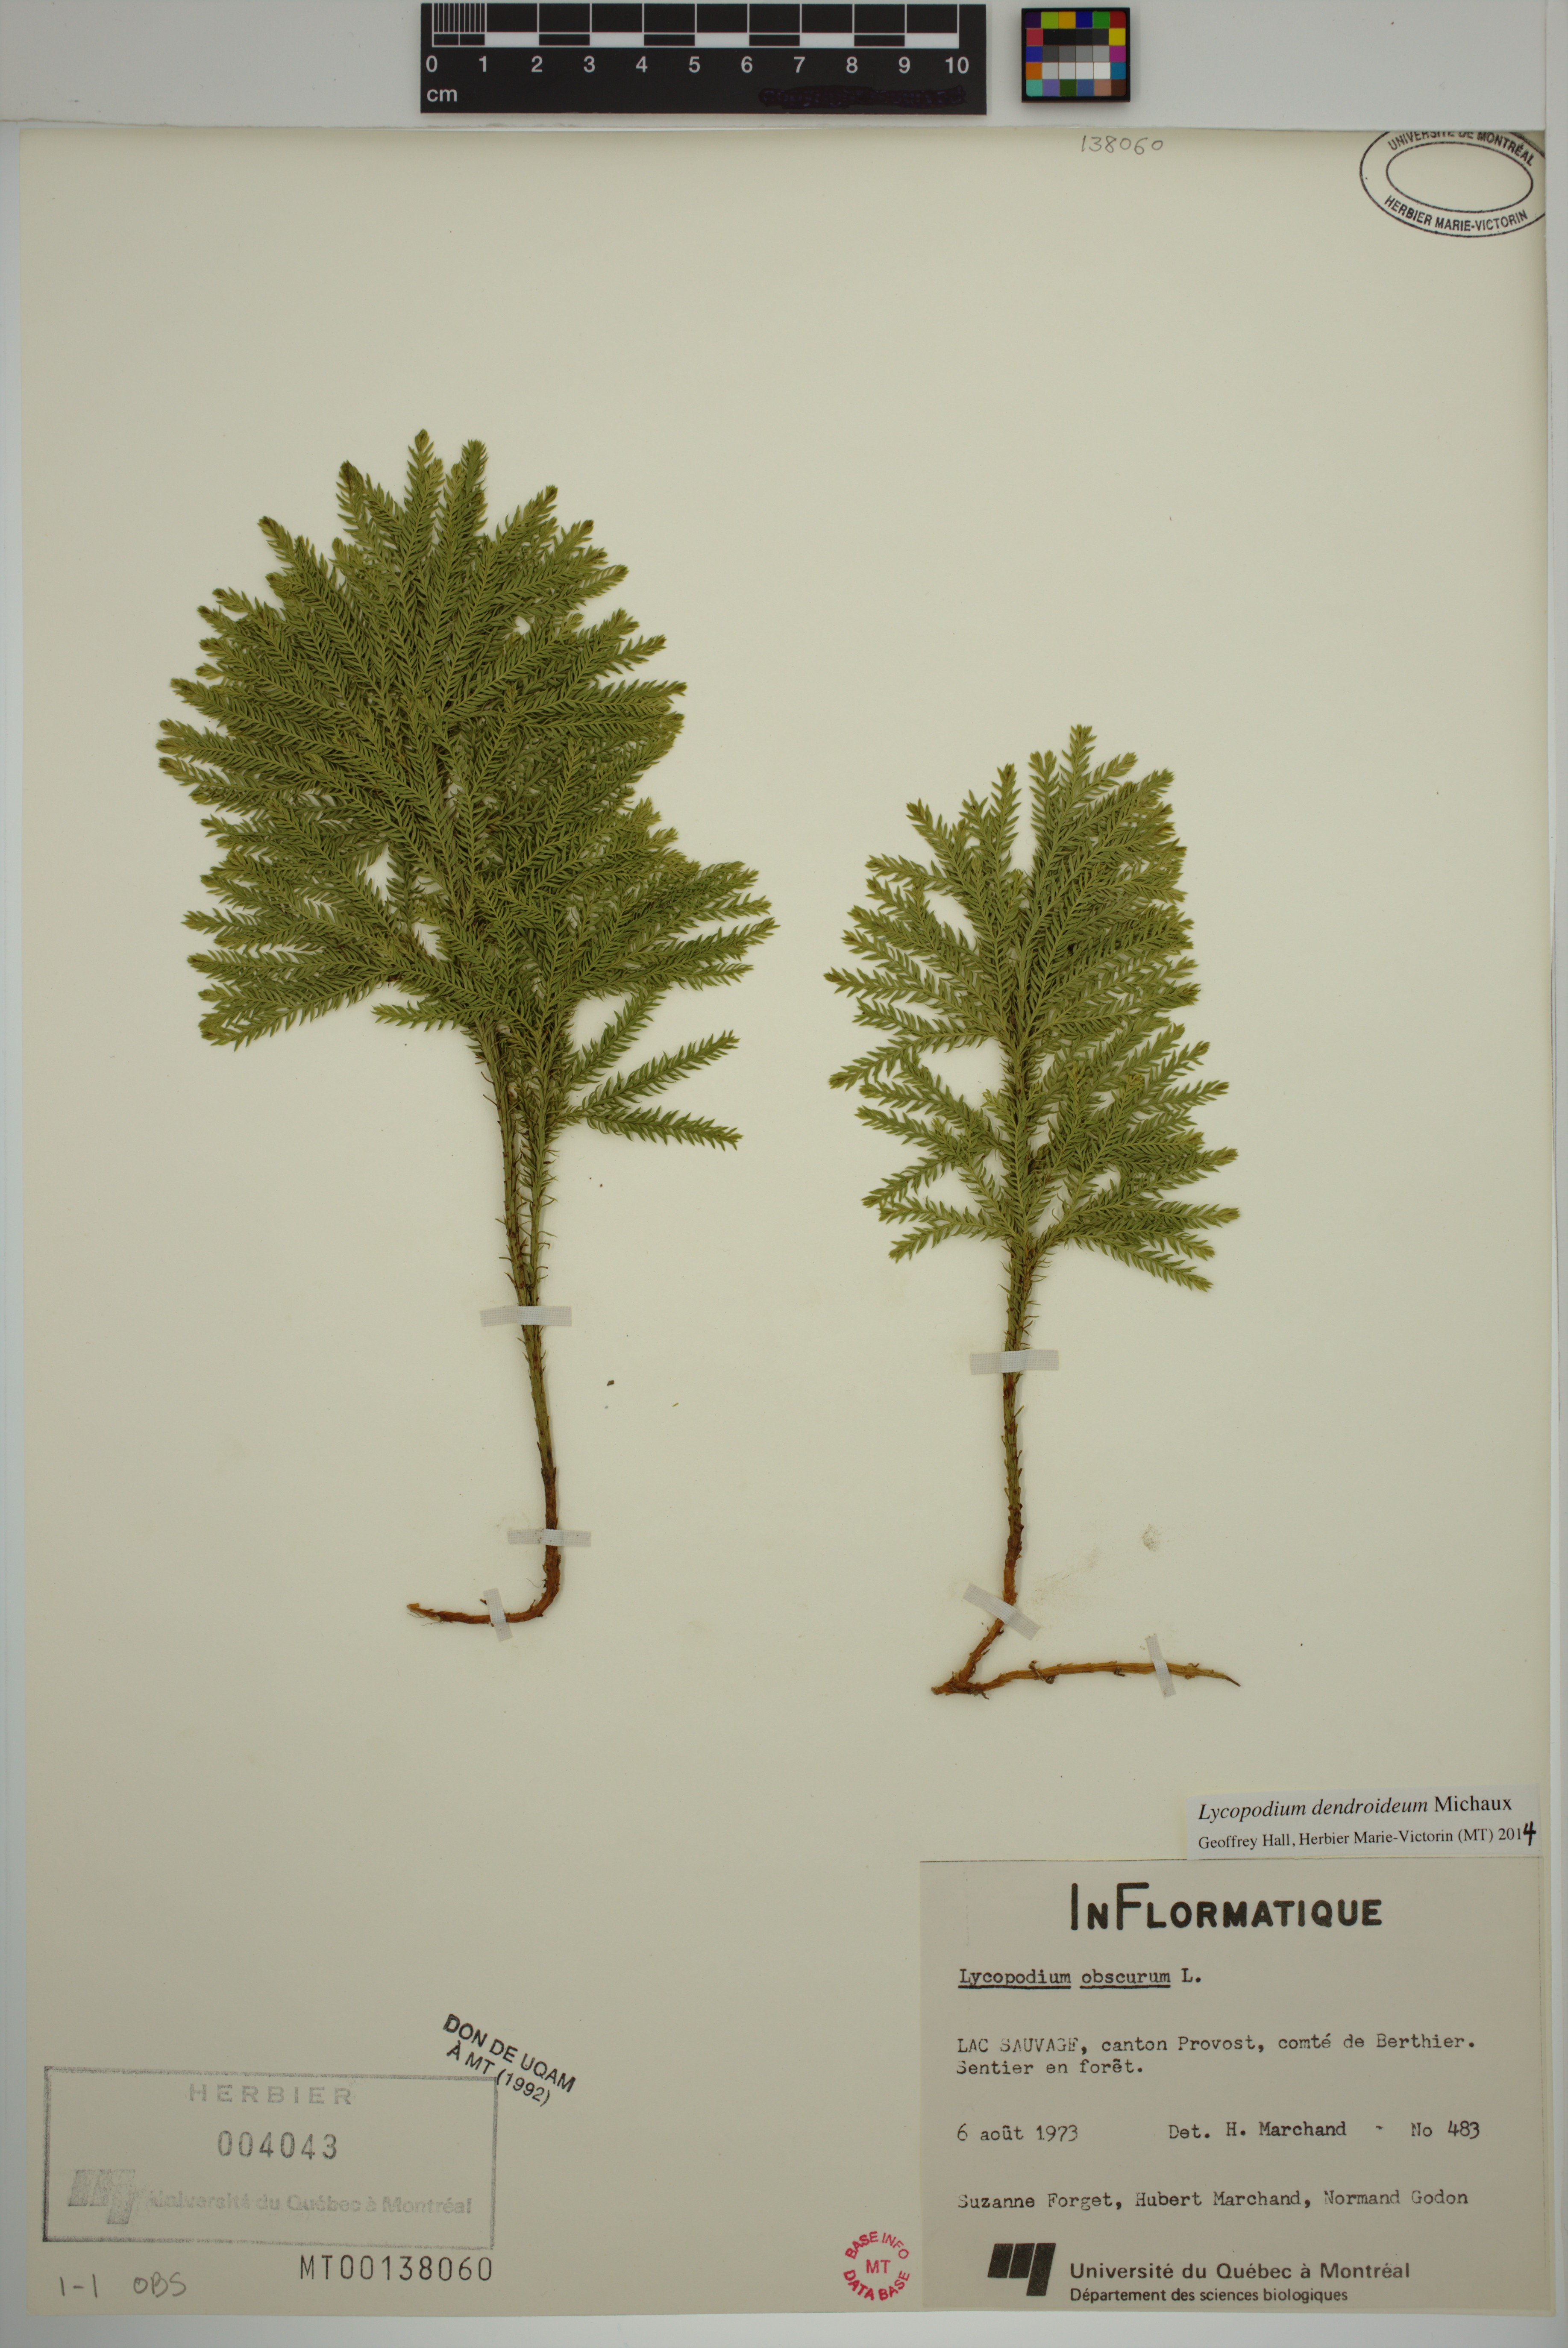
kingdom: Plantae
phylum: Tracheophyta
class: Lycopodiopsida
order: Lycopodiales
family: Lycopodiaceae
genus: Dendrolycopodium
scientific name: Dendrolycopodium dendroideum
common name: Northern tree-clubmoss
